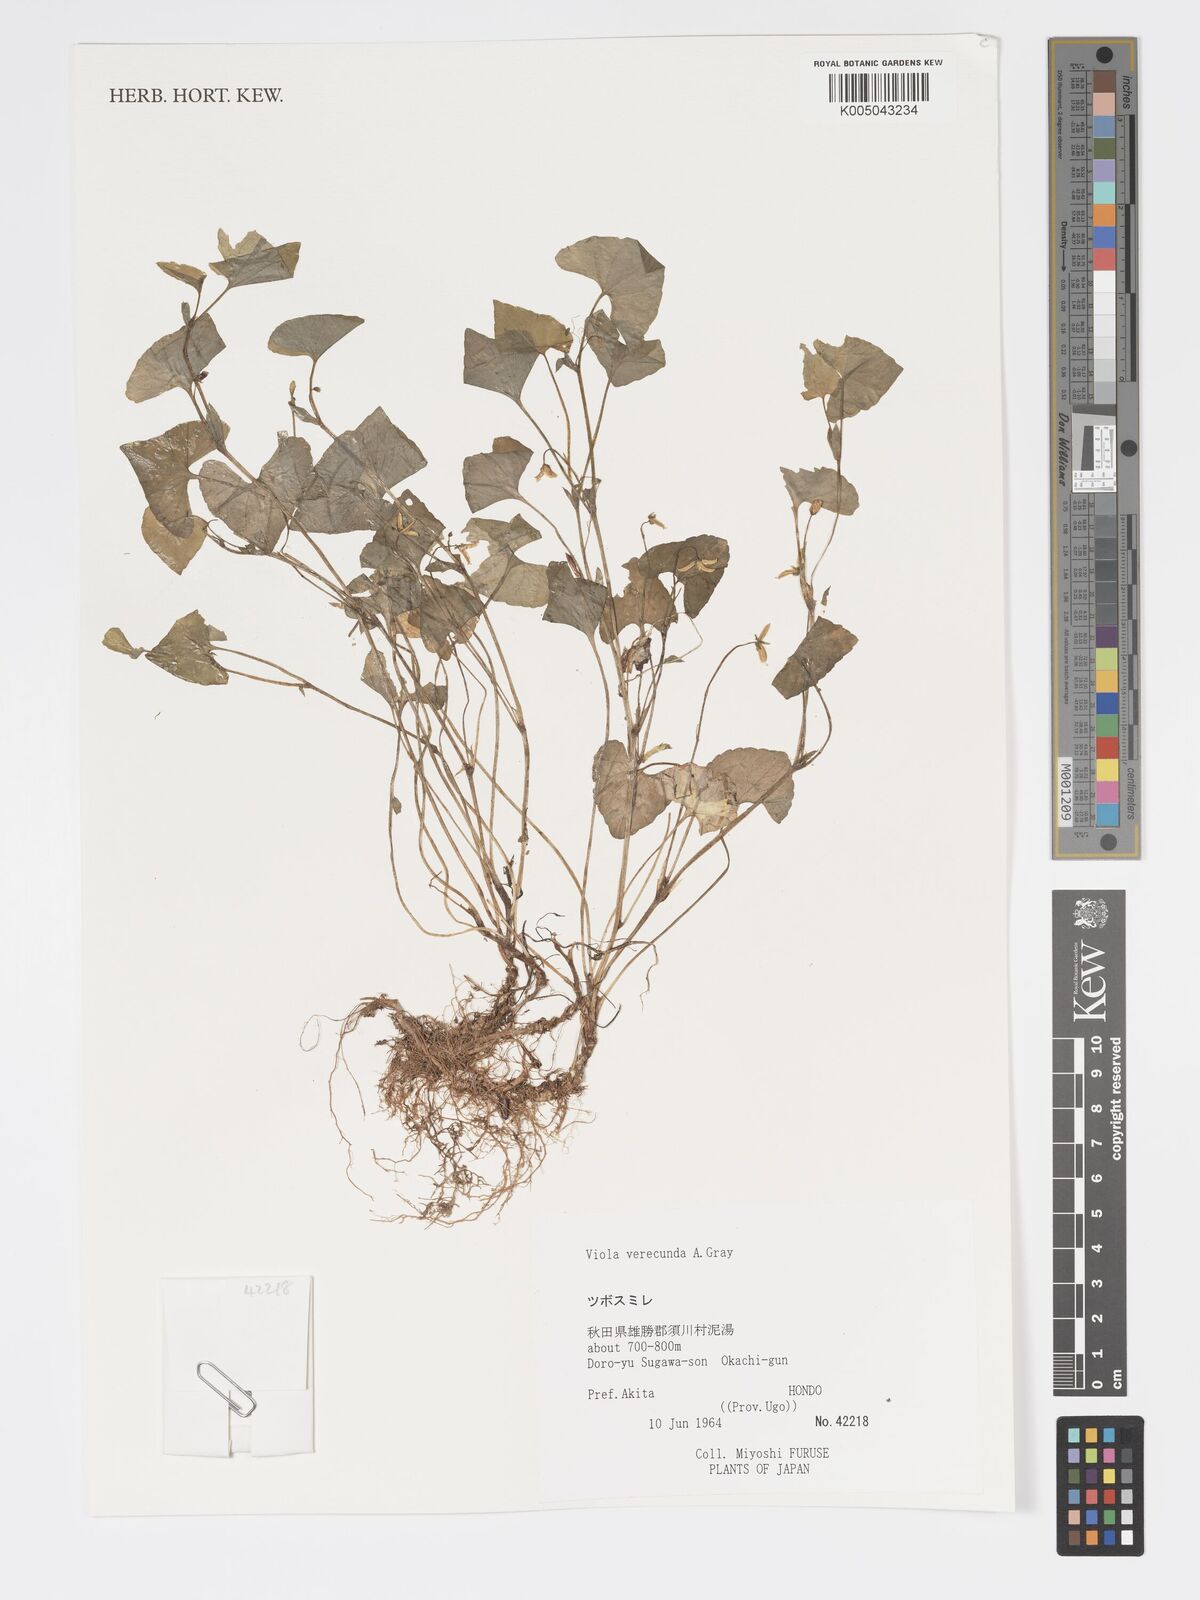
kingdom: Plantae
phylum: Tracheophyta
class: Magnoliopsida
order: Malpighiales
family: Violaceae
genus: Viola
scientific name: Viola hamiltoniana
